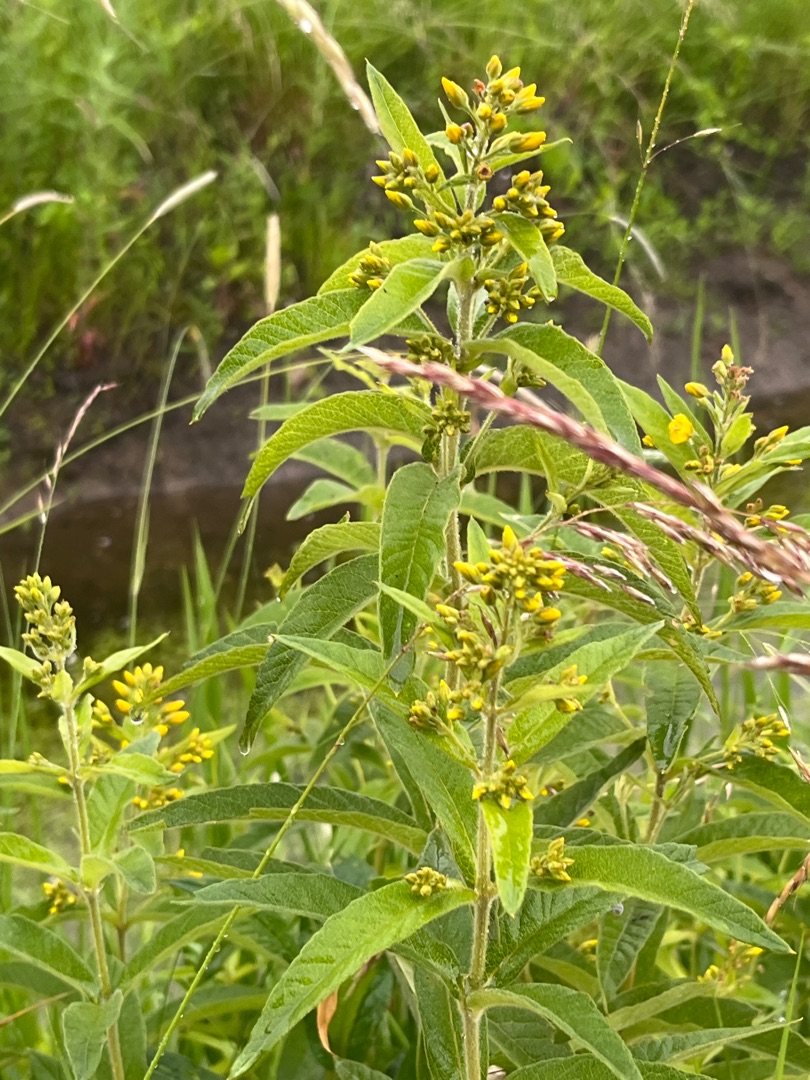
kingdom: Plantae
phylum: Tracheophyta
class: Magnoliopsida
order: Ericales
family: Primulaceae
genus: Lysimachia
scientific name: Lysimachia vulgaris
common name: Almindelig fredløs
